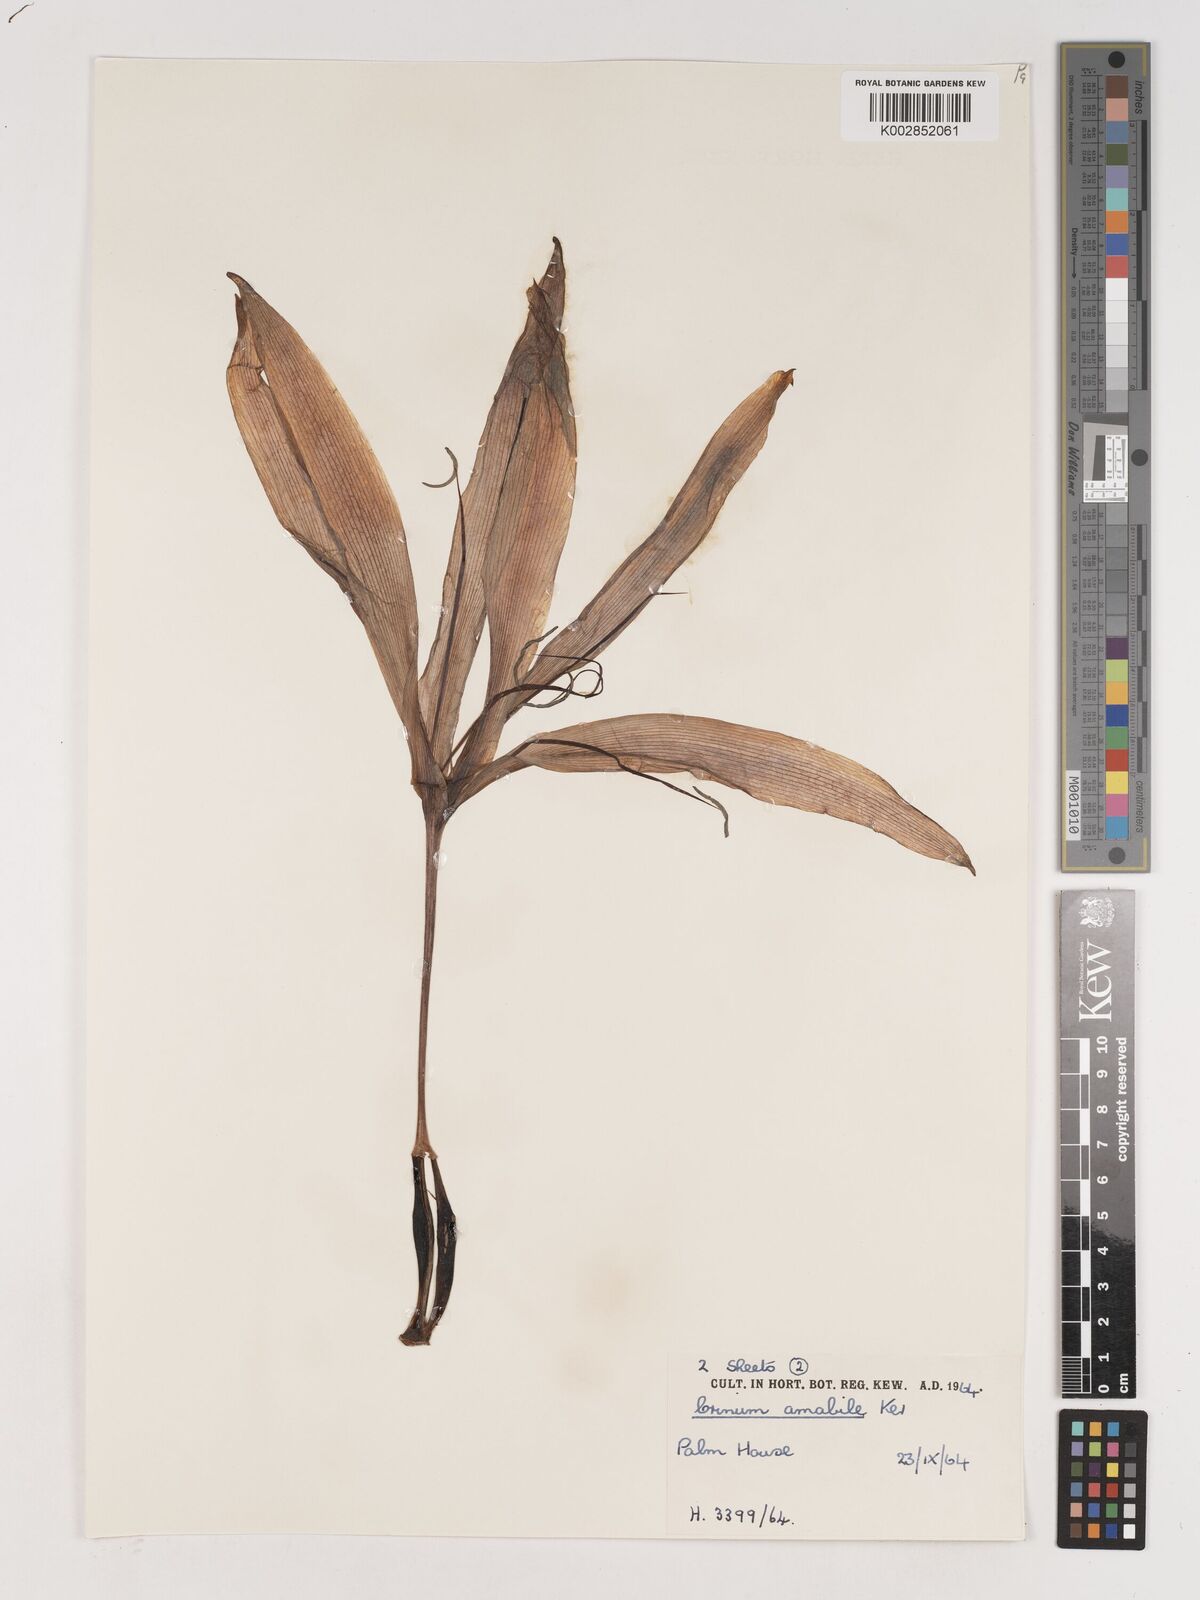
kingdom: Plantae
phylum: Tracheophyta
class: Liliopsida
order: Asparagales
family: Amaryllidaceae
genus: Crinum
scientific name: Crinum amabile
